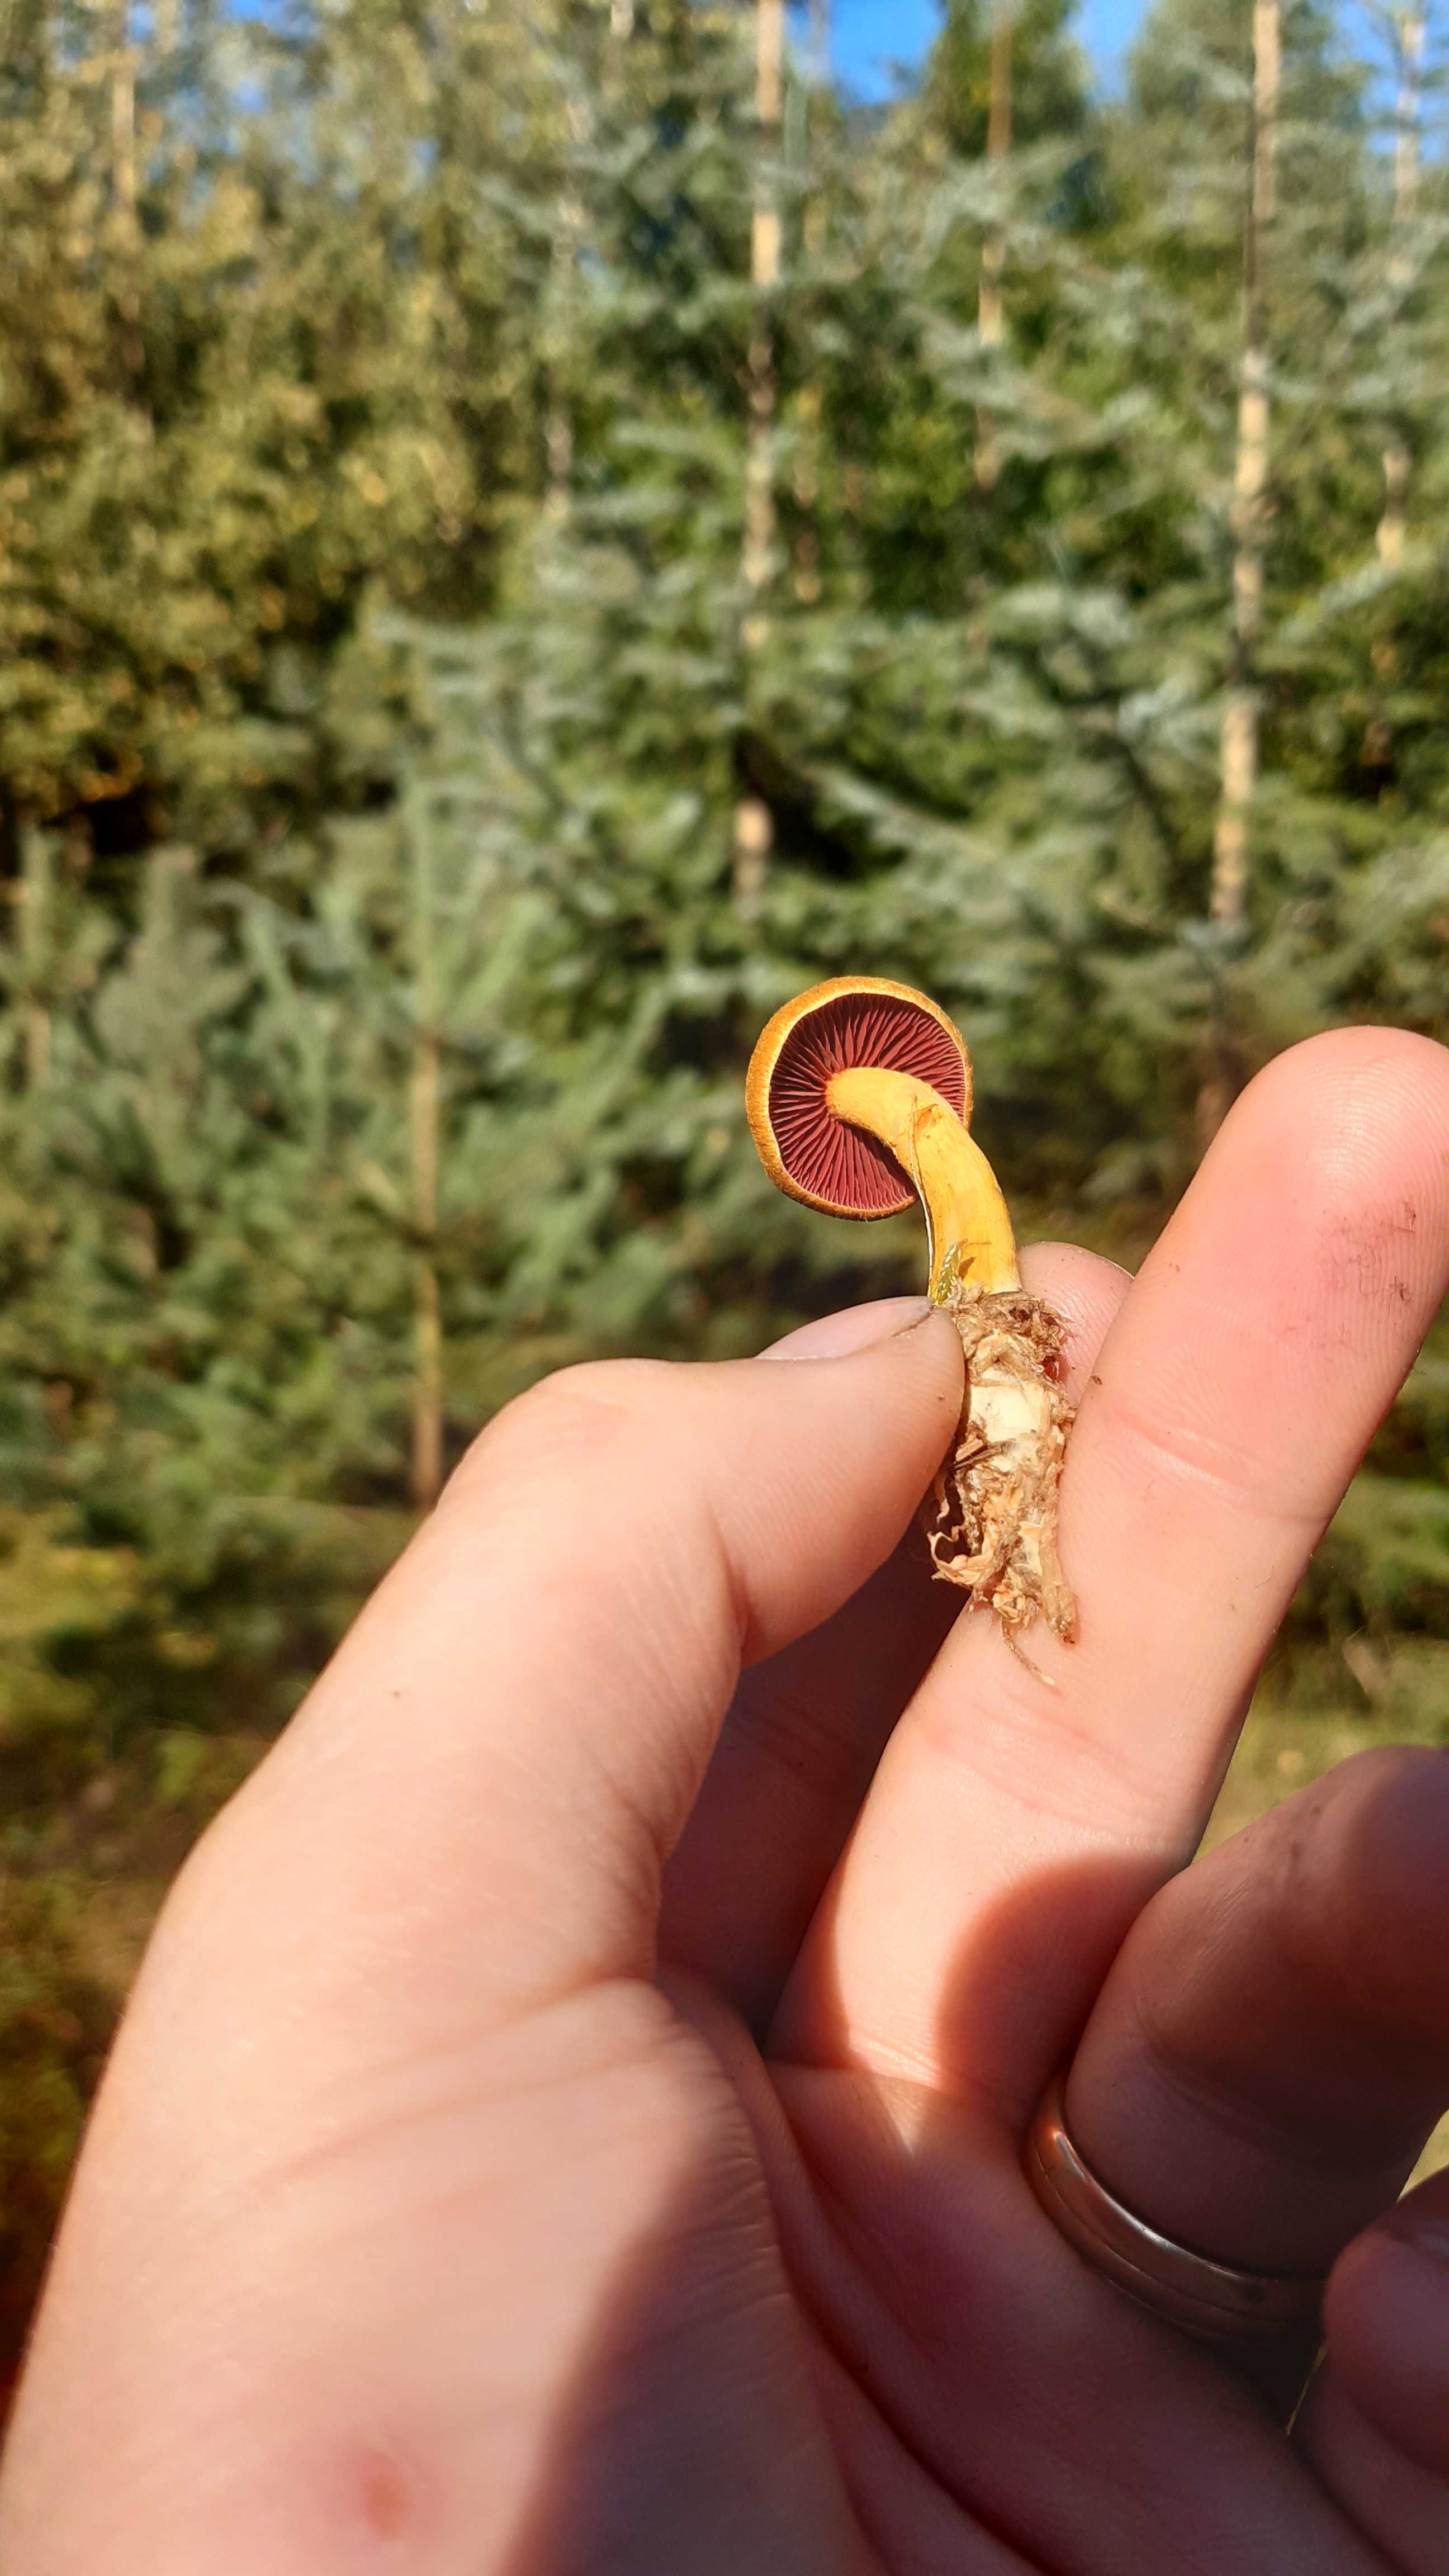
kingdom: Fungi
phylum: Basidiomycota
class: Agaricomycetes
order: Agaricales
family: Cortinariaceae
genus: Cortinarius
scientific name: Cortinarius
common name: cinnoberbladet slørhat
